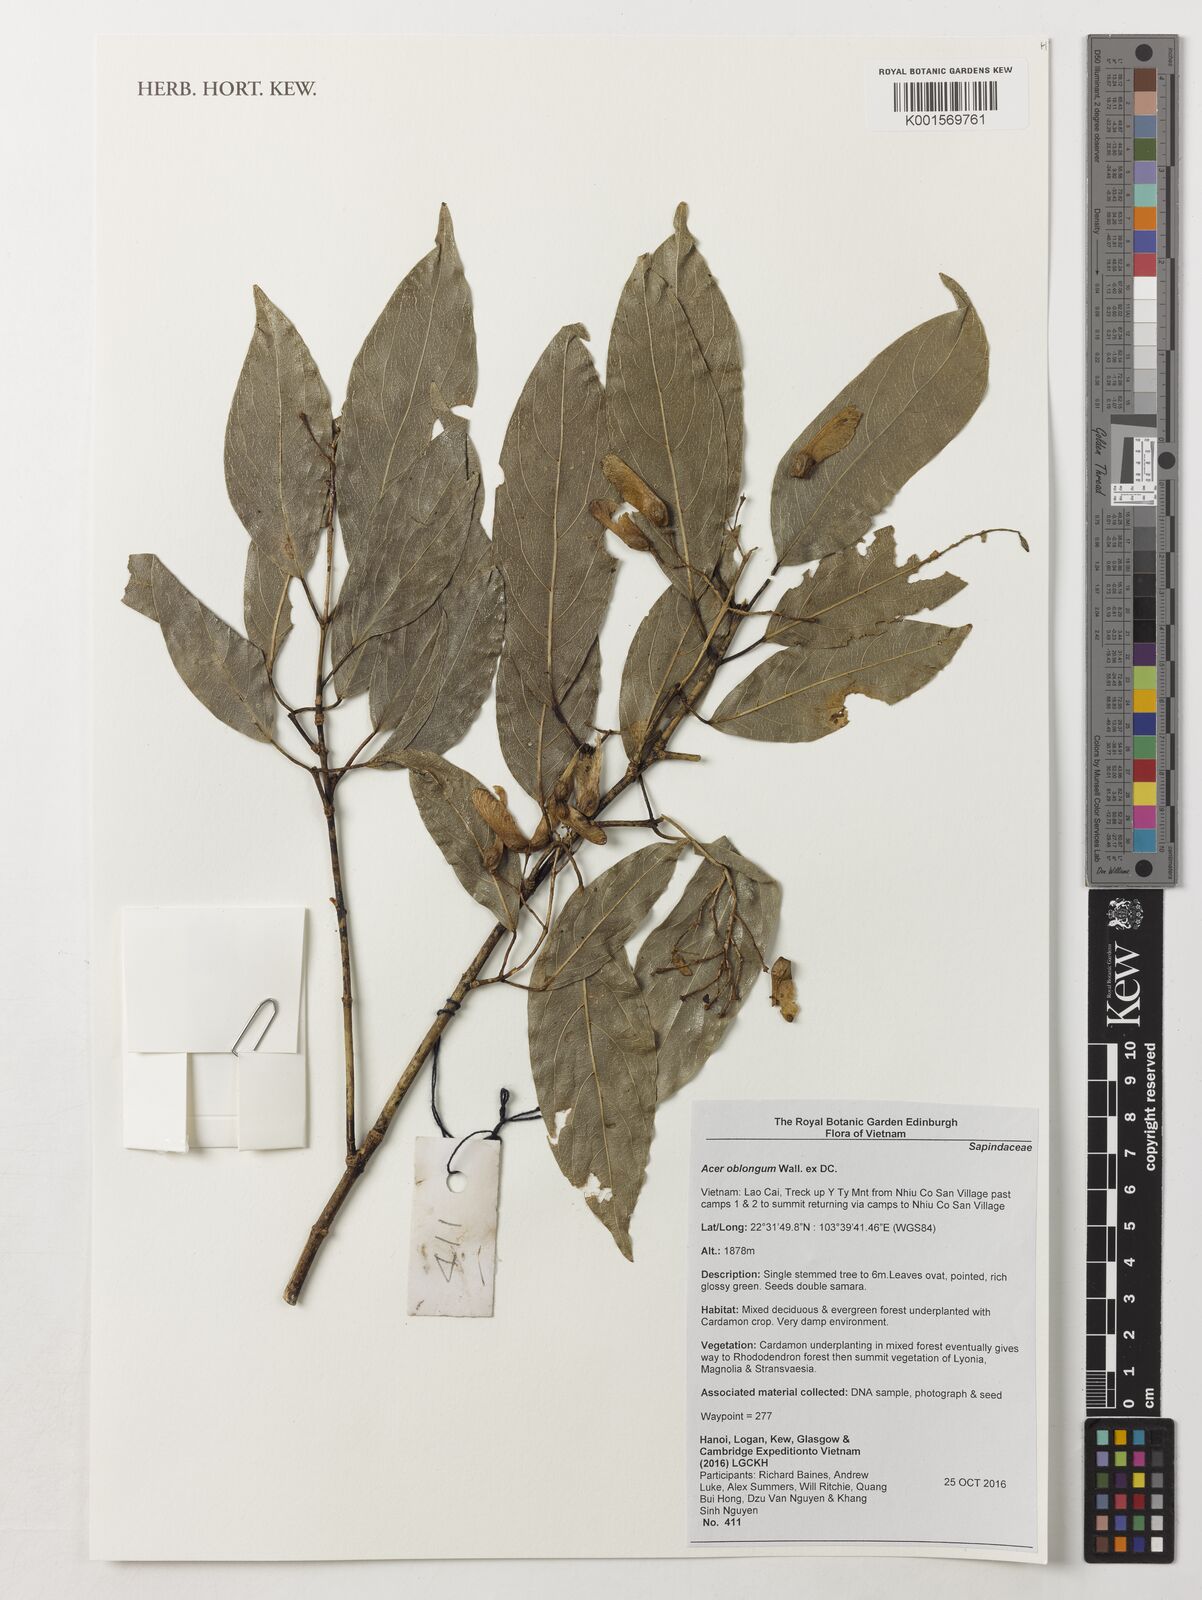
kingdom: Plantae
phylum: Tracheophyta
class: Magnoliopsida
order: Sapindales
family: Sapindaceae
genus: Acer
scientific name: Acer oblongum
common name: Himalayan maple
